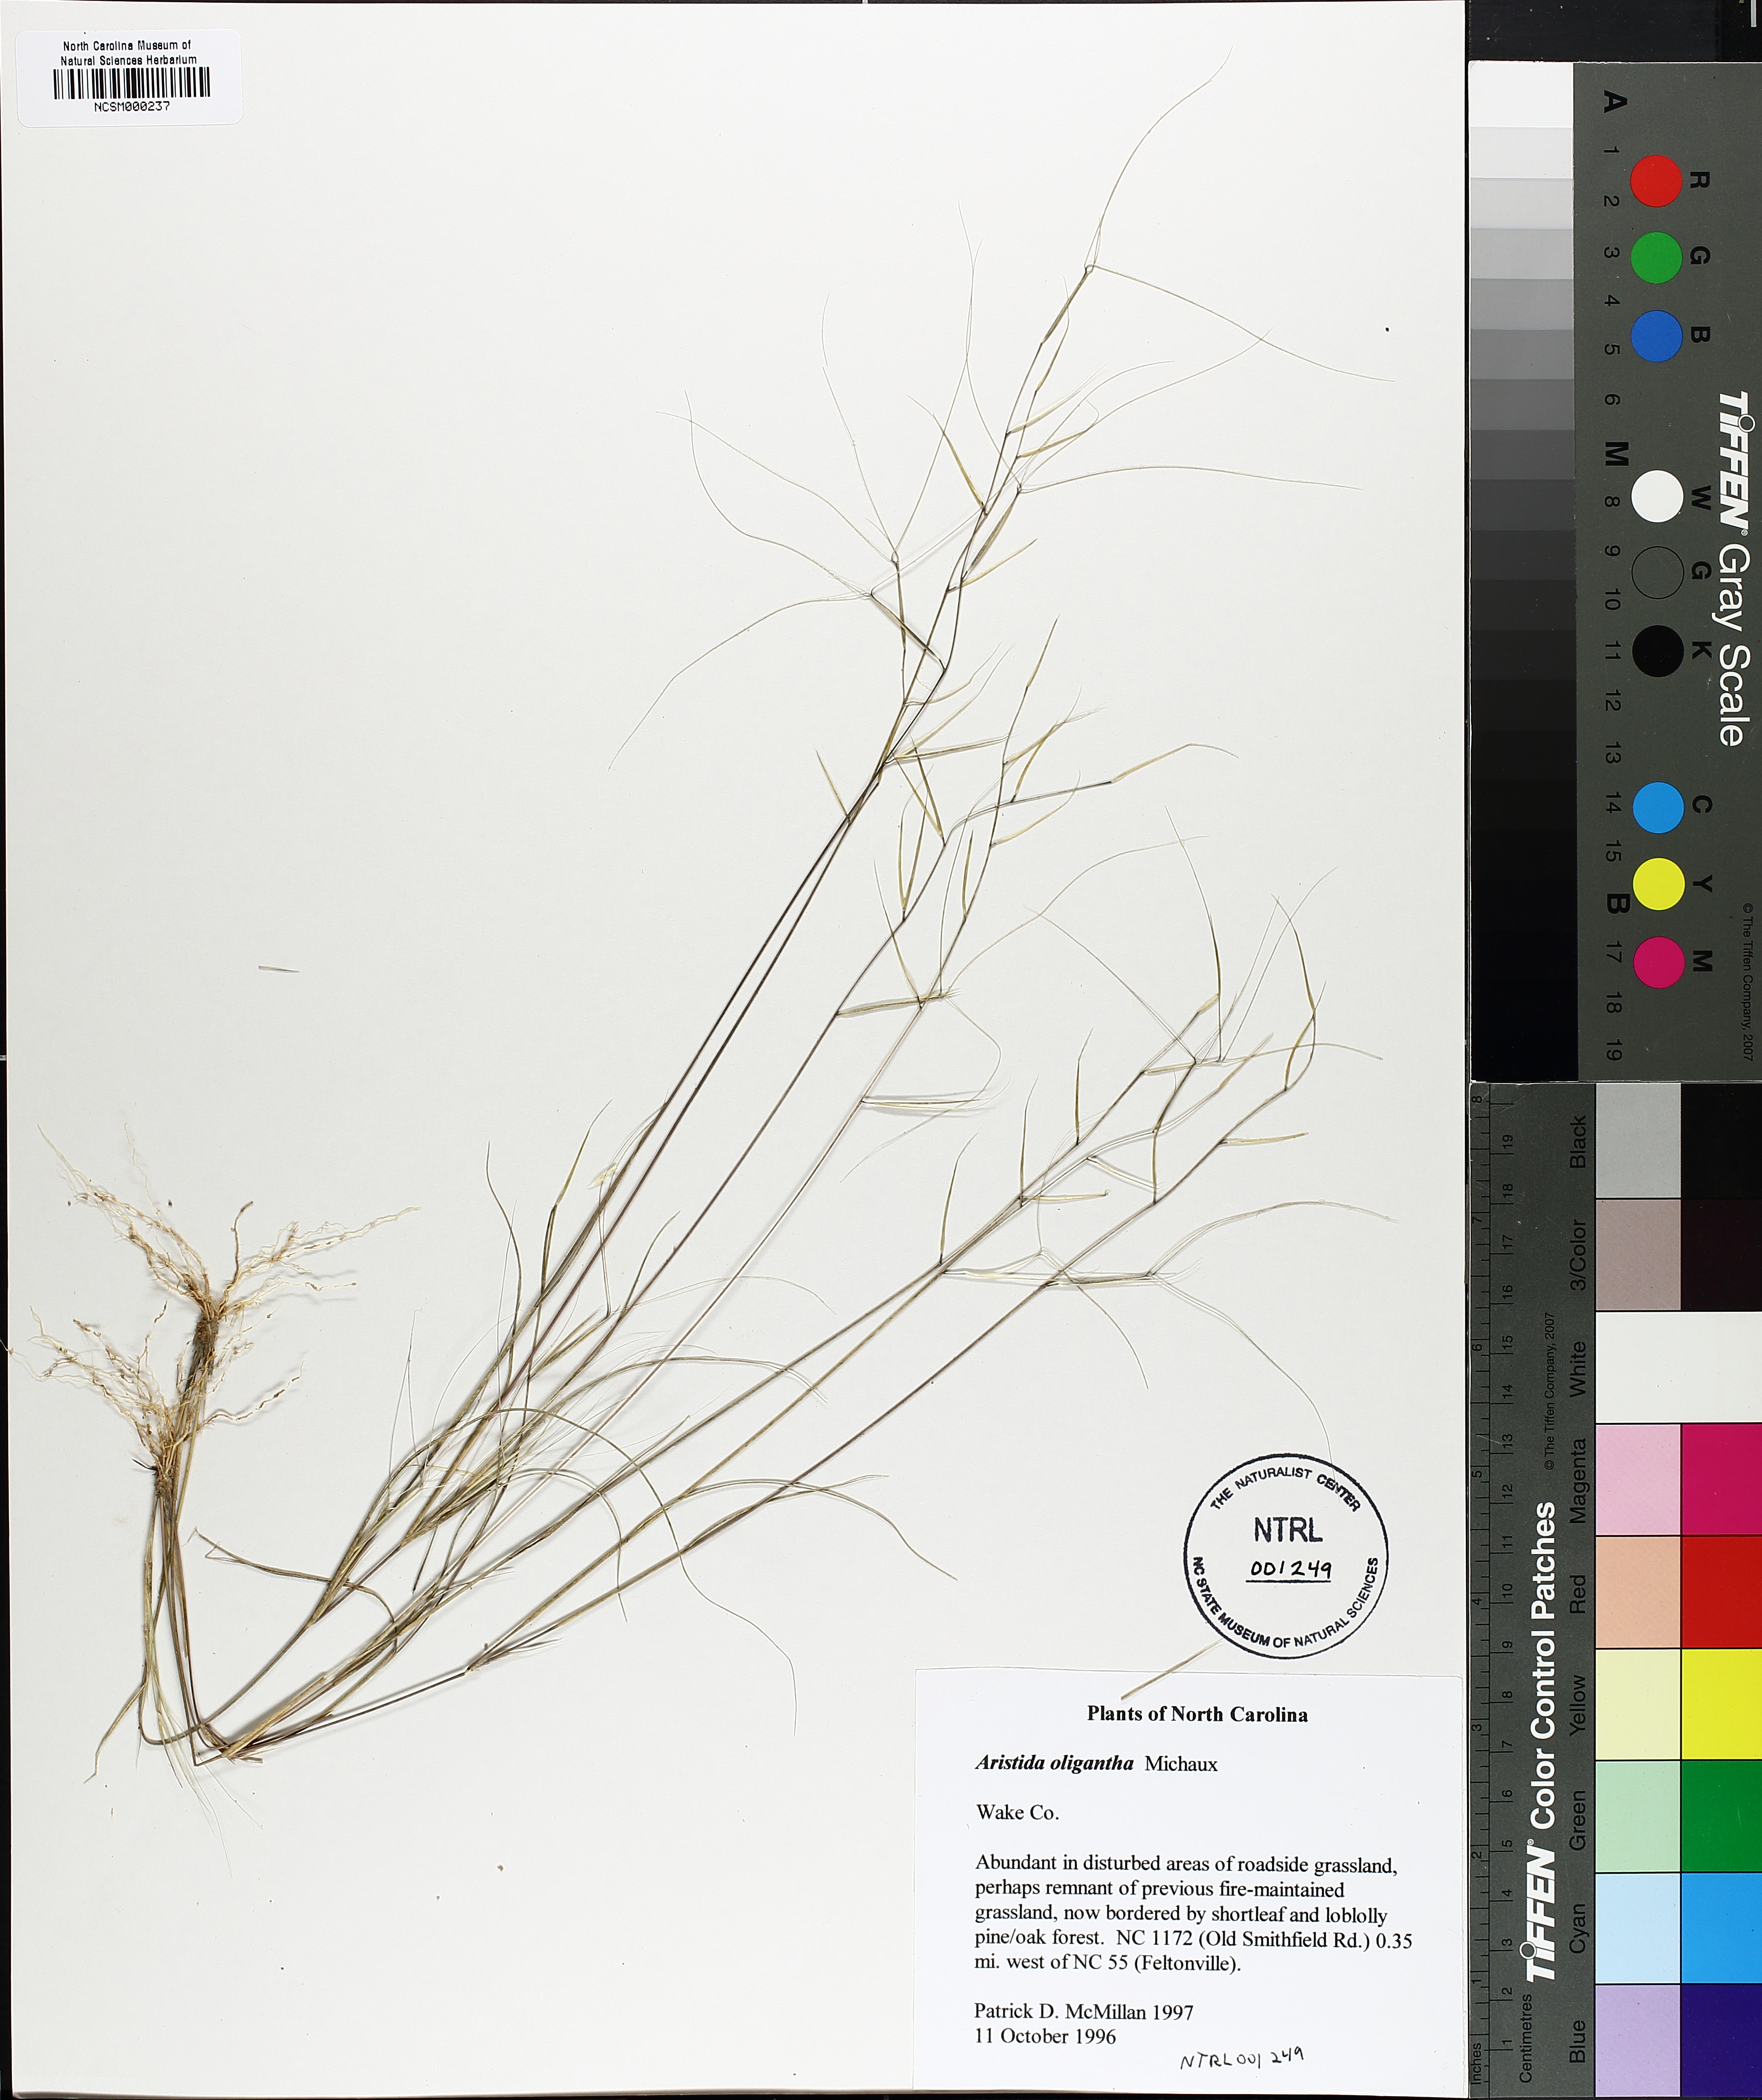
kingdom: Plantae
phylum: Tracheophyta
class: Liliopsida
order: Poales
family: Poaceae
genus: Aristida
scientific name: Aristida oligantha
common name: Few-flowered aristida
